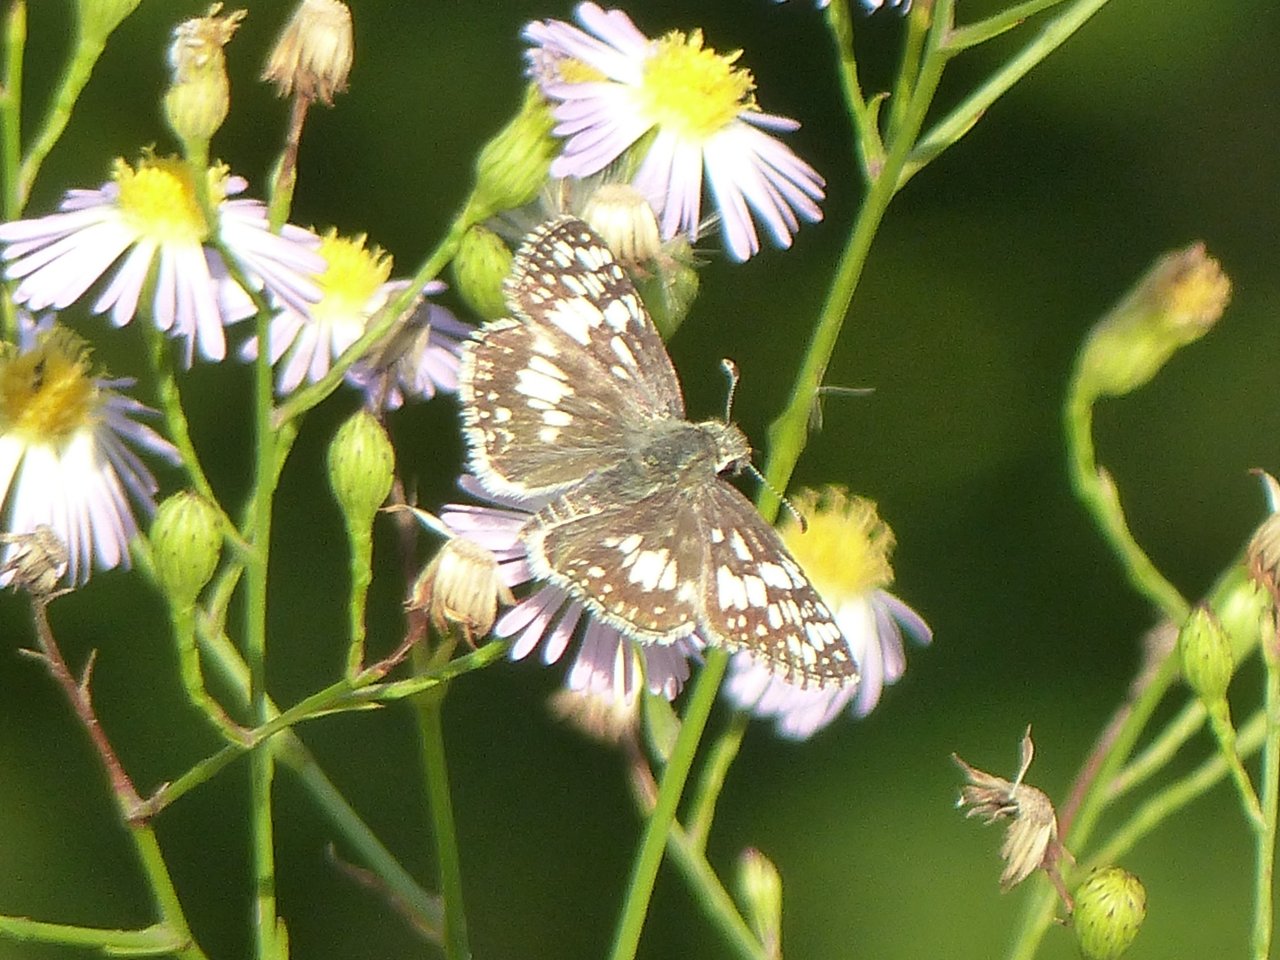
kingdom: Animalia
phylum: Arthropoda
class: Insecta
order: Lepidoptera
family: Hesperiidae
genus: Pyrgus
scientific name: Pyrgus communis
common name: White Checkered-Skipper
